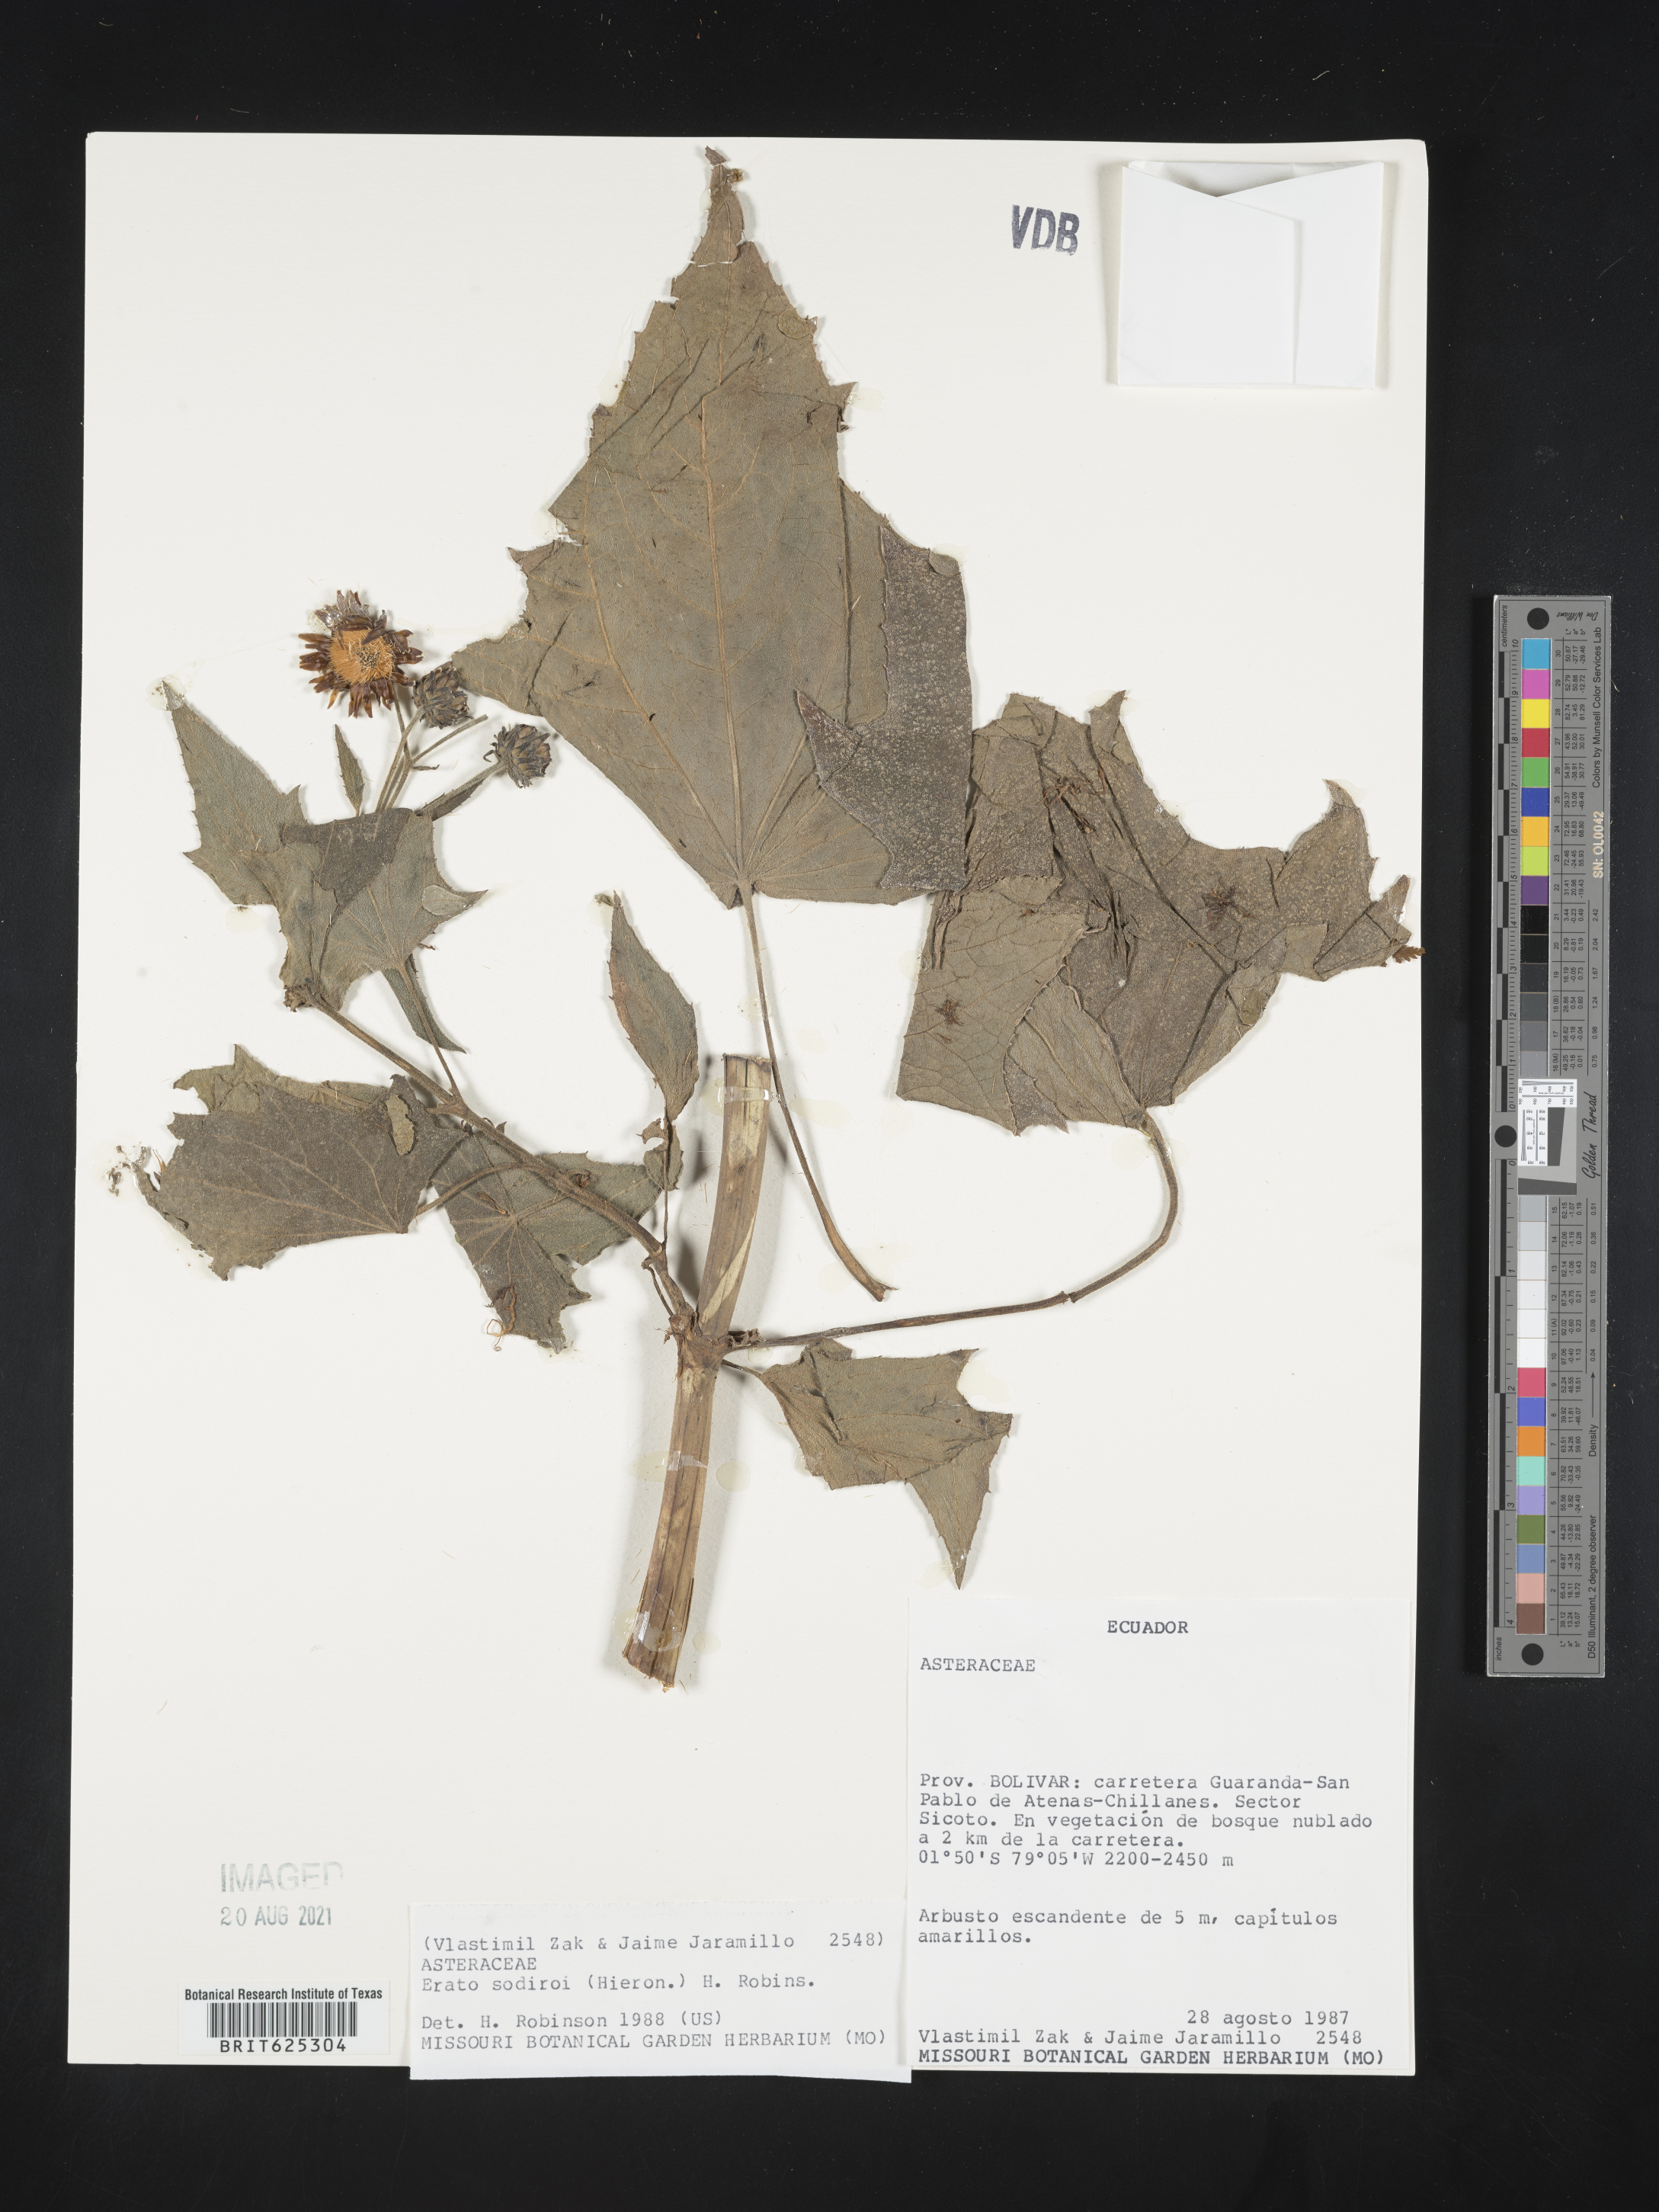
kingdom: Plantae
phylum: Tracheophyta
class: Magnoliopsida
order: Asterales
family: Asteraceae
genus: Erato
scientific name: Erato sodiroi
